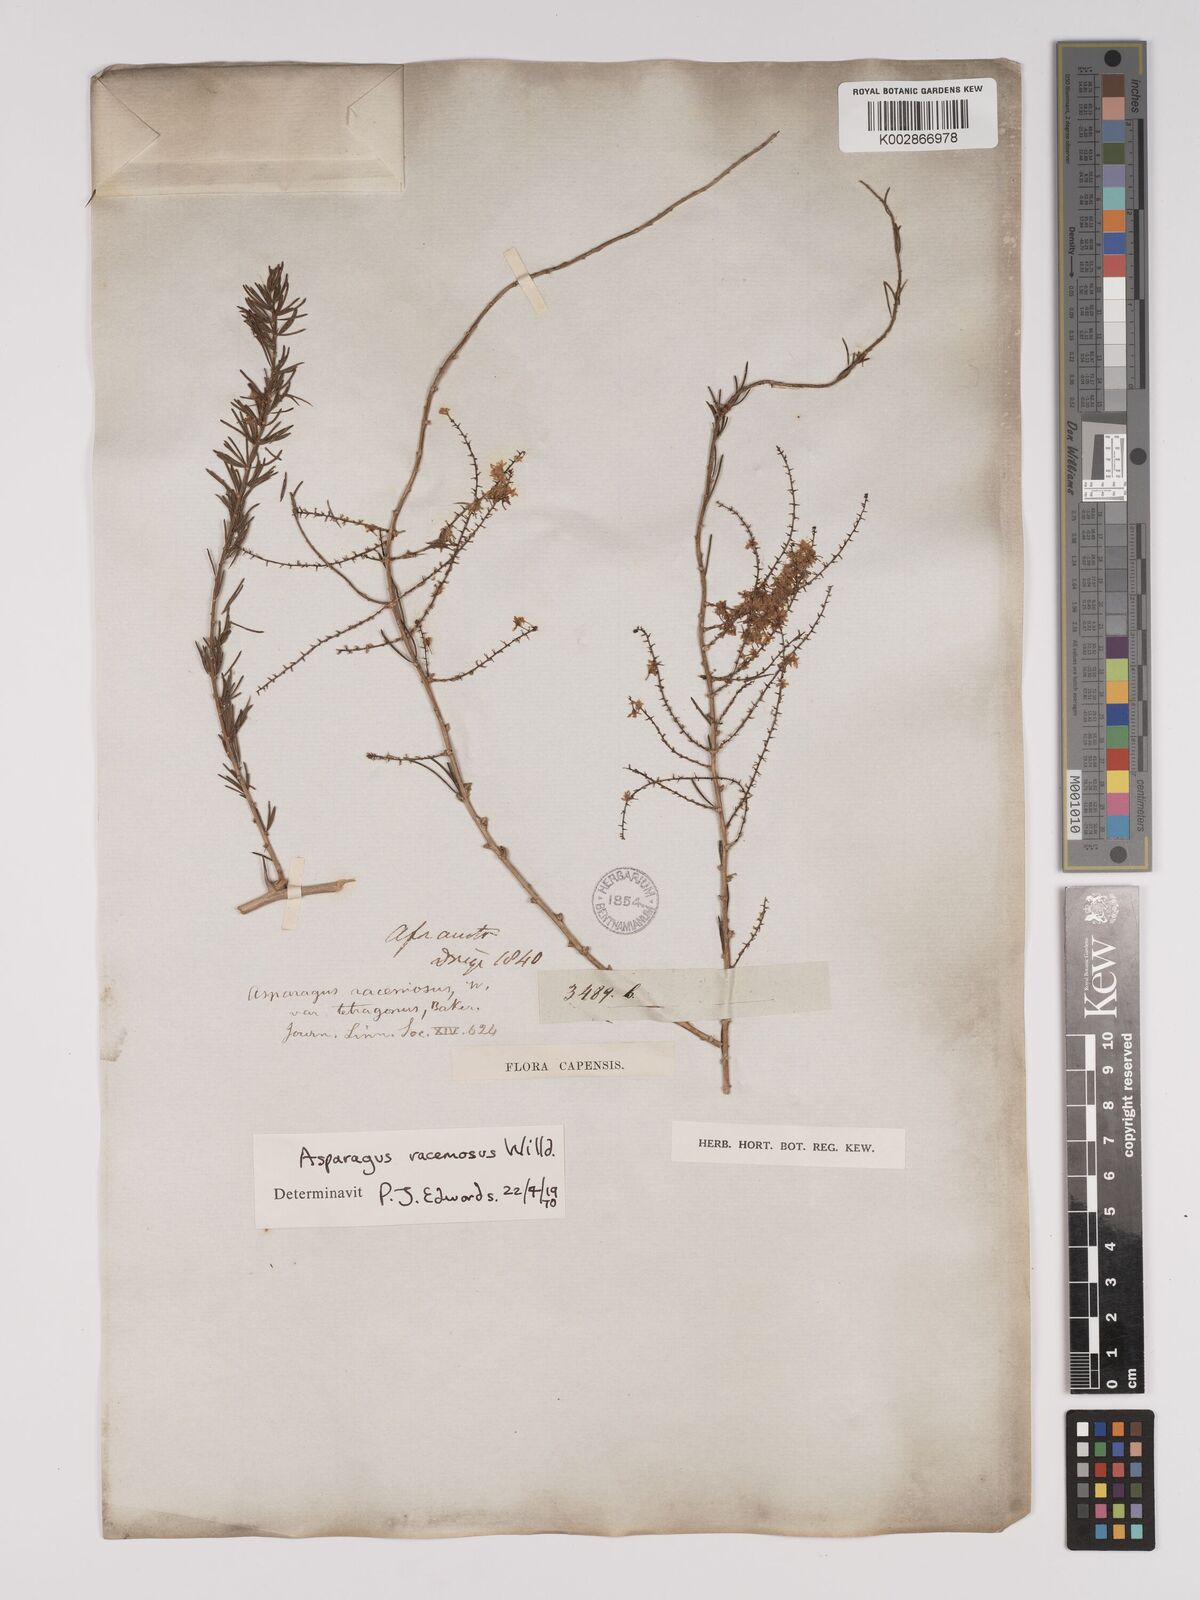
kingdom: Plantae
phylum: Tracheophyta
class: Liliopsida
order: Asparagales
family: Asparagaceae
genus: Asparagus
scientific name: Asparagus racemosus
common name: Asparagus-fern
